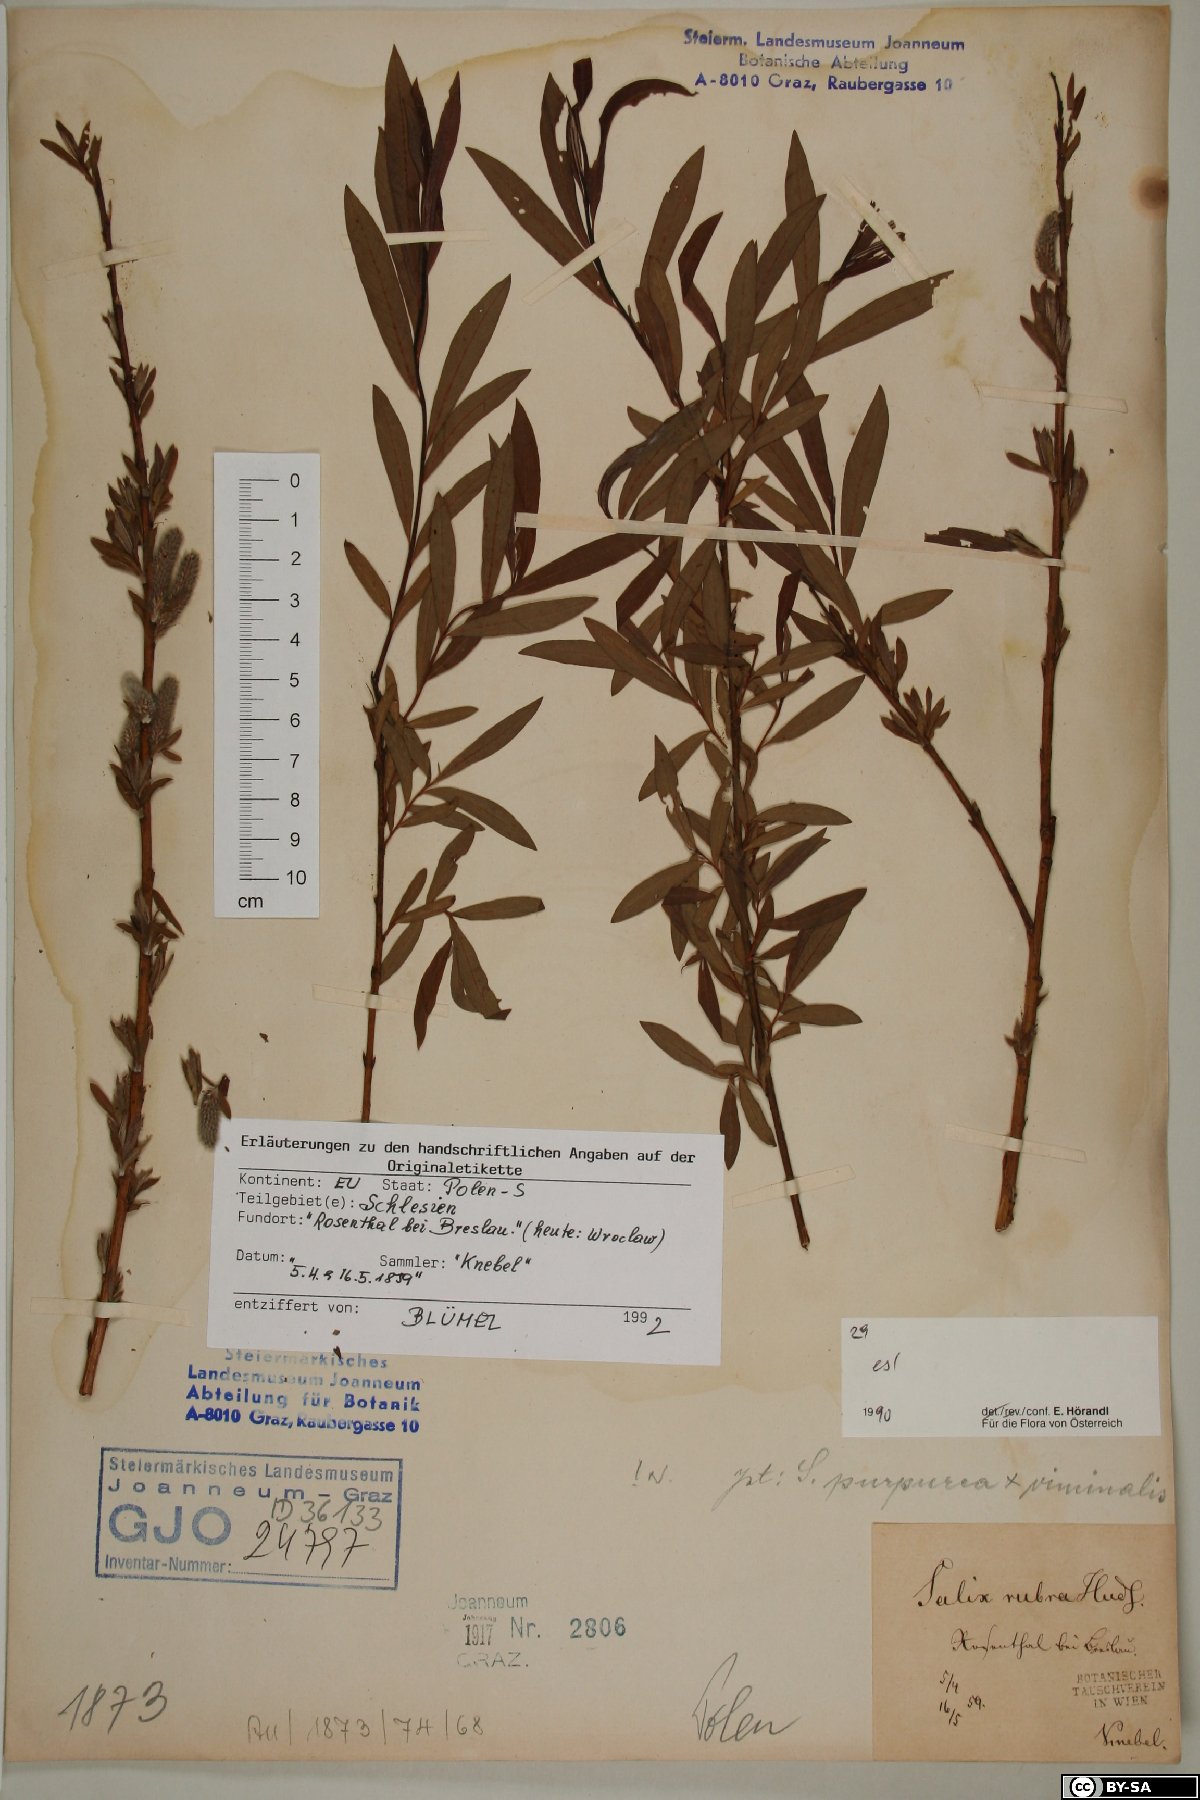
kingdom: Plantae
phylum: Tracheophyta
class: Magnoliopsida
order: Malpighiales
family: Salicaceae
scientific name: Salicaceae
